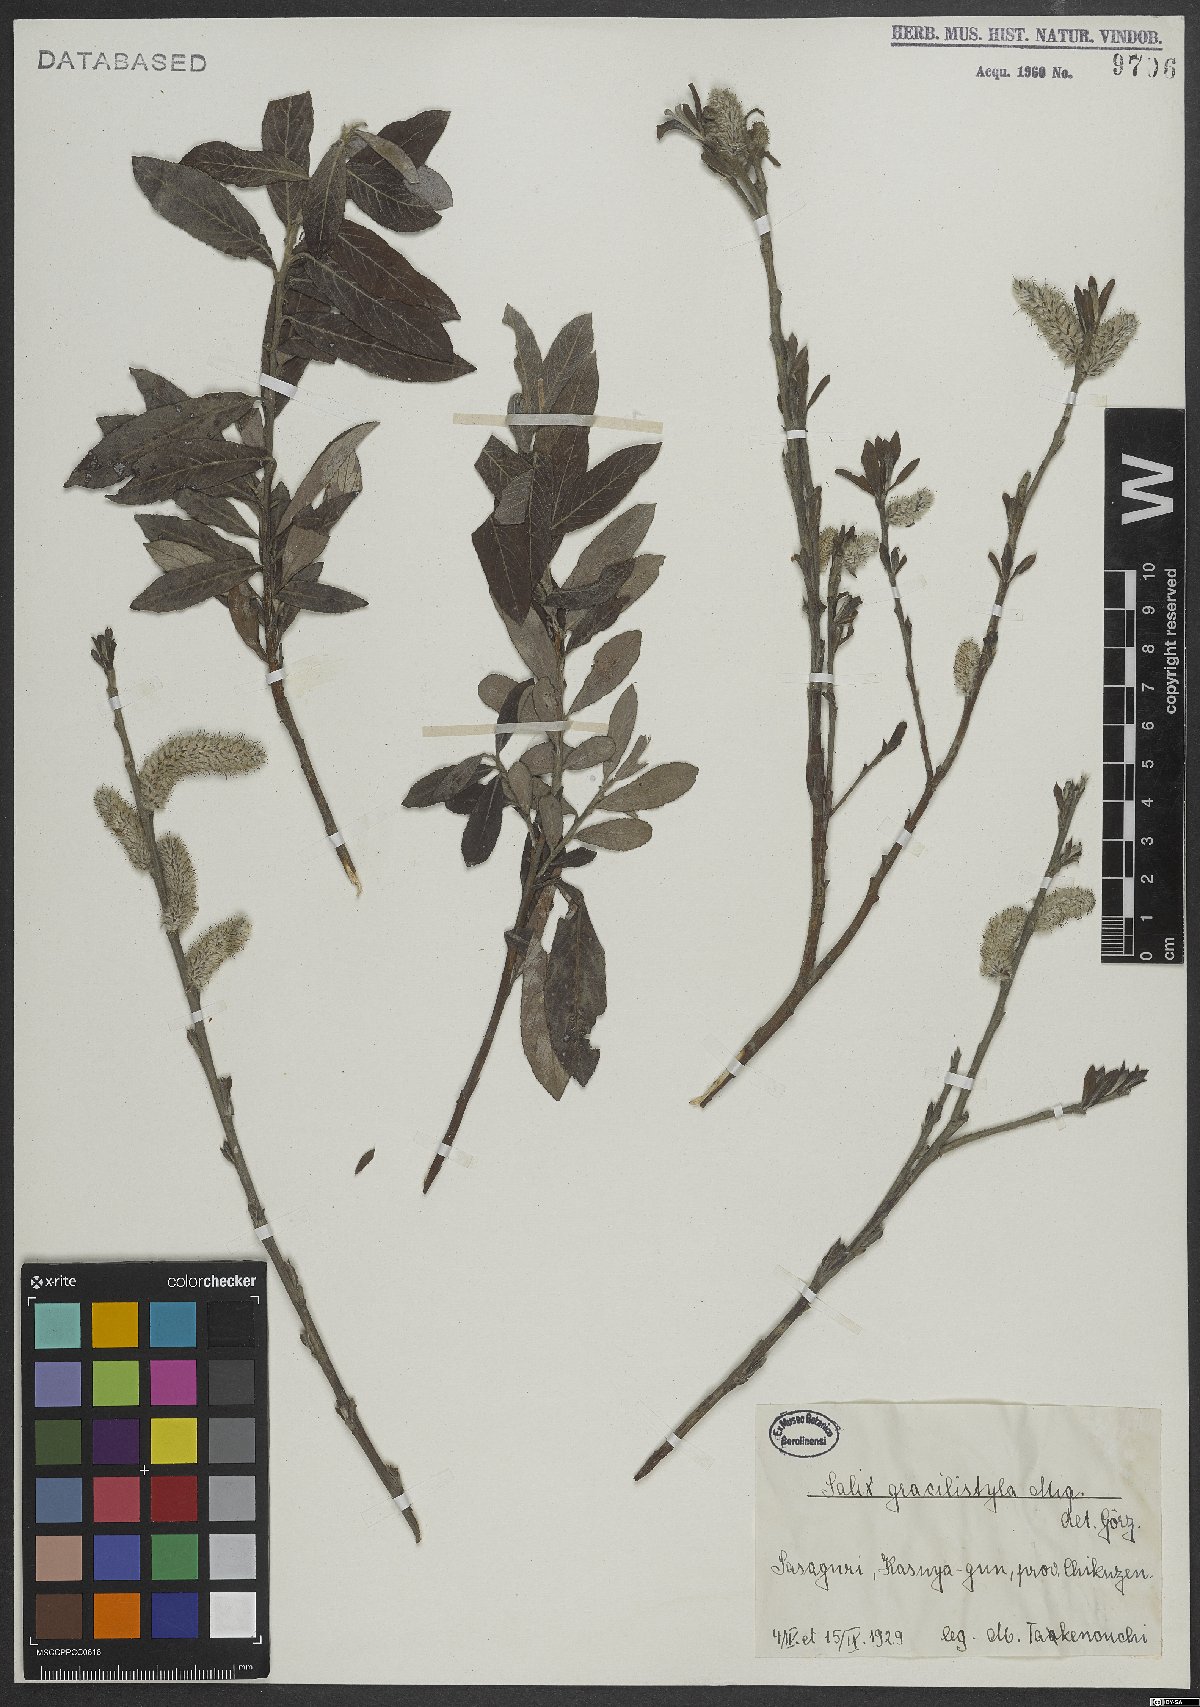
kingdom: Plantae
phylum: Tracheophyta
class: Magnoliopsida
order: Malpighiales
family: Salicaceae
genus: Salix
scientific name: Salix gracilistyla
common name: Rose-gold pussy willow
